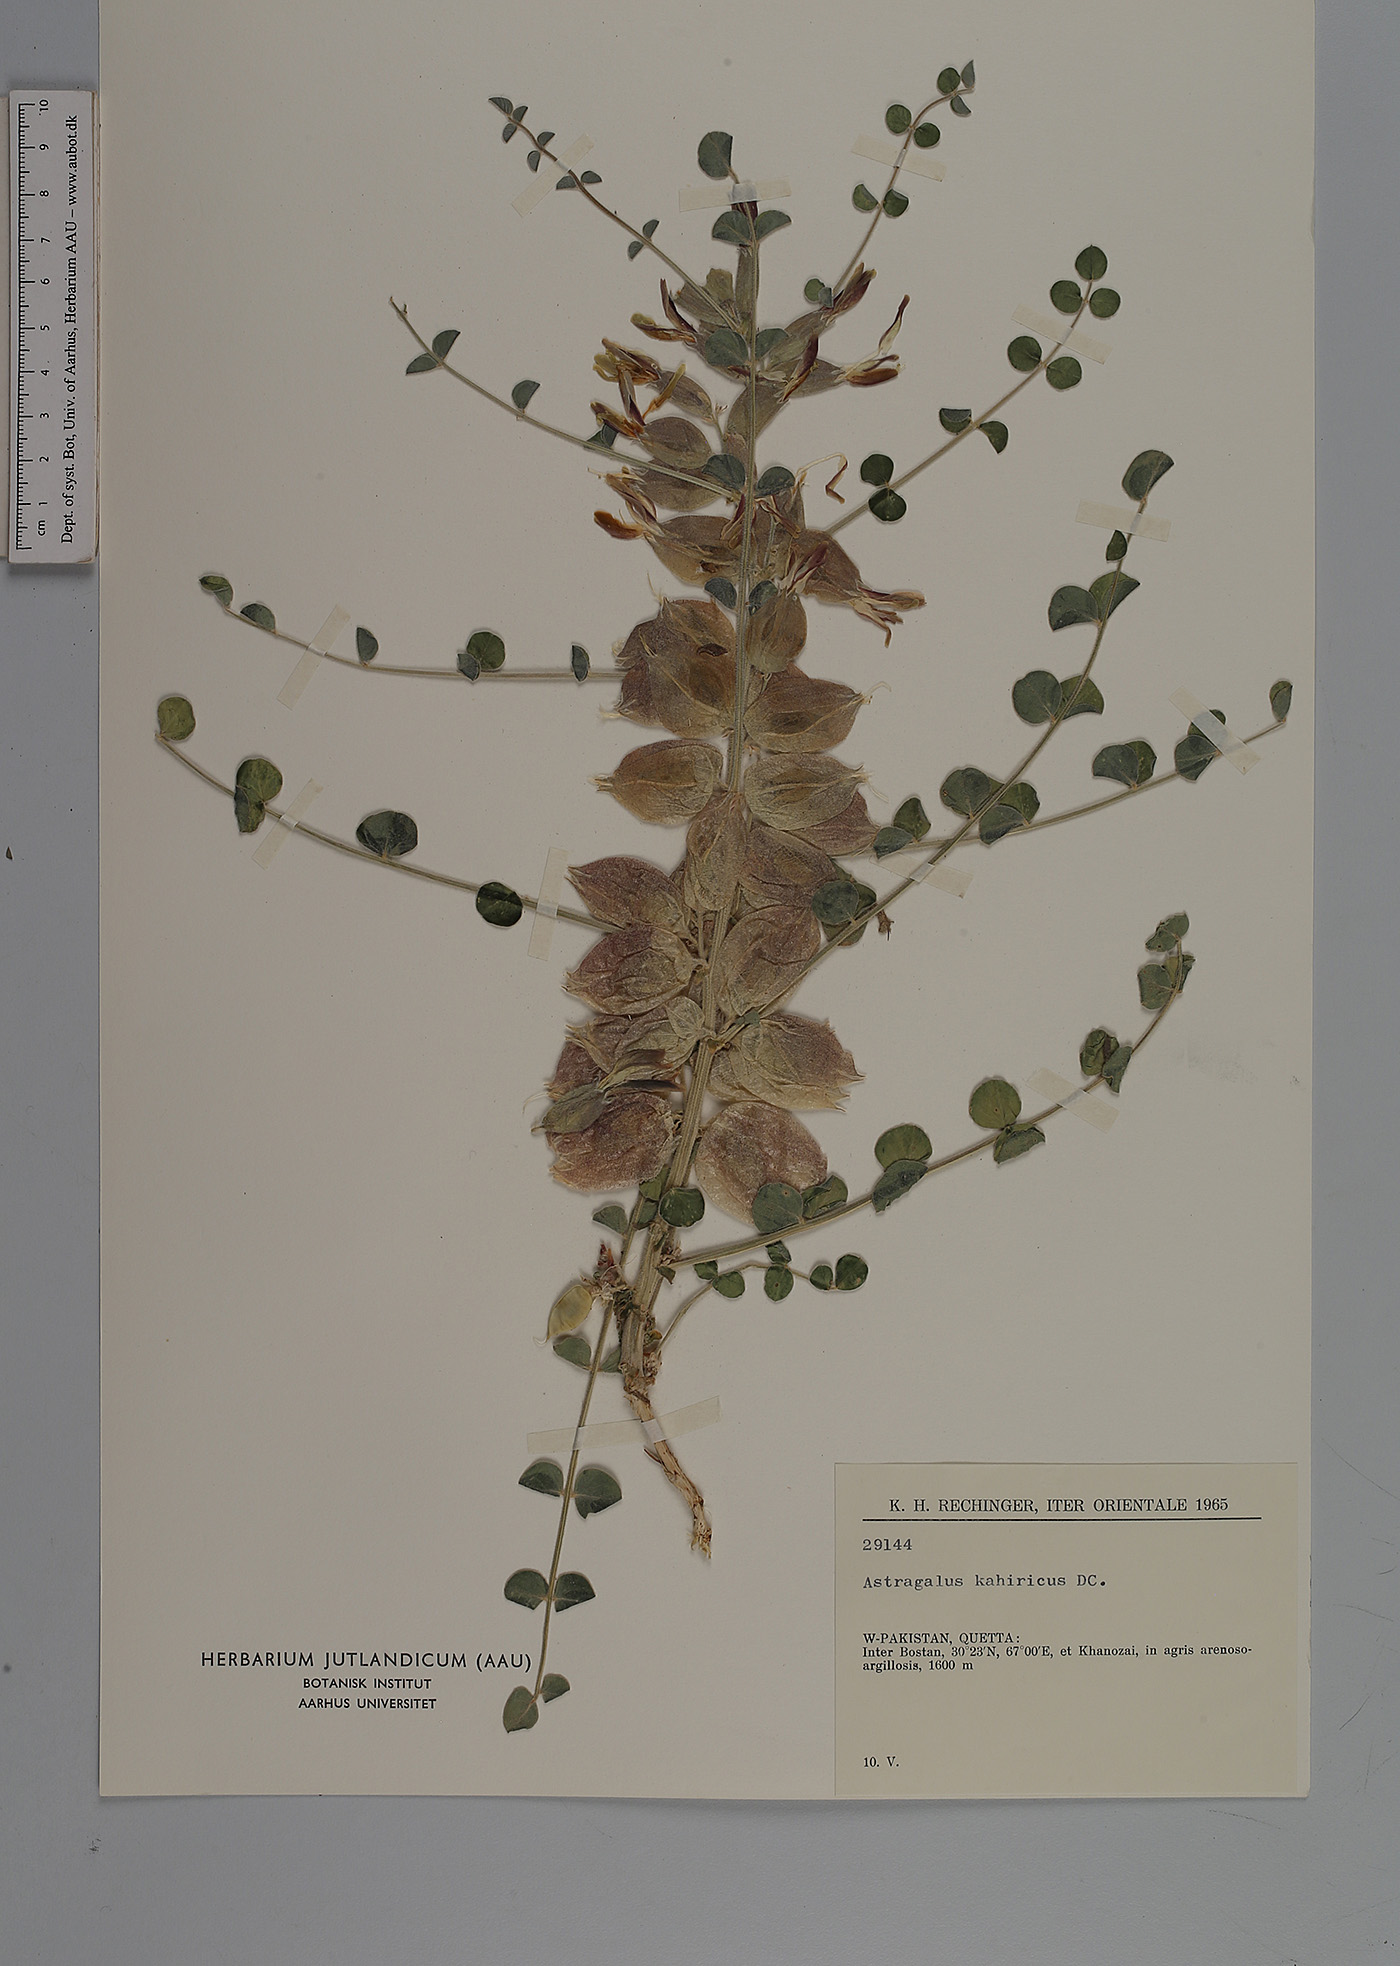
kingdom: Plantae
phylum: Tracheophyta
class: Magnoliopsida
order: Fabales
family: Fabaceae
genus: Astragalus
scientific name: Astragalus kahiricus
